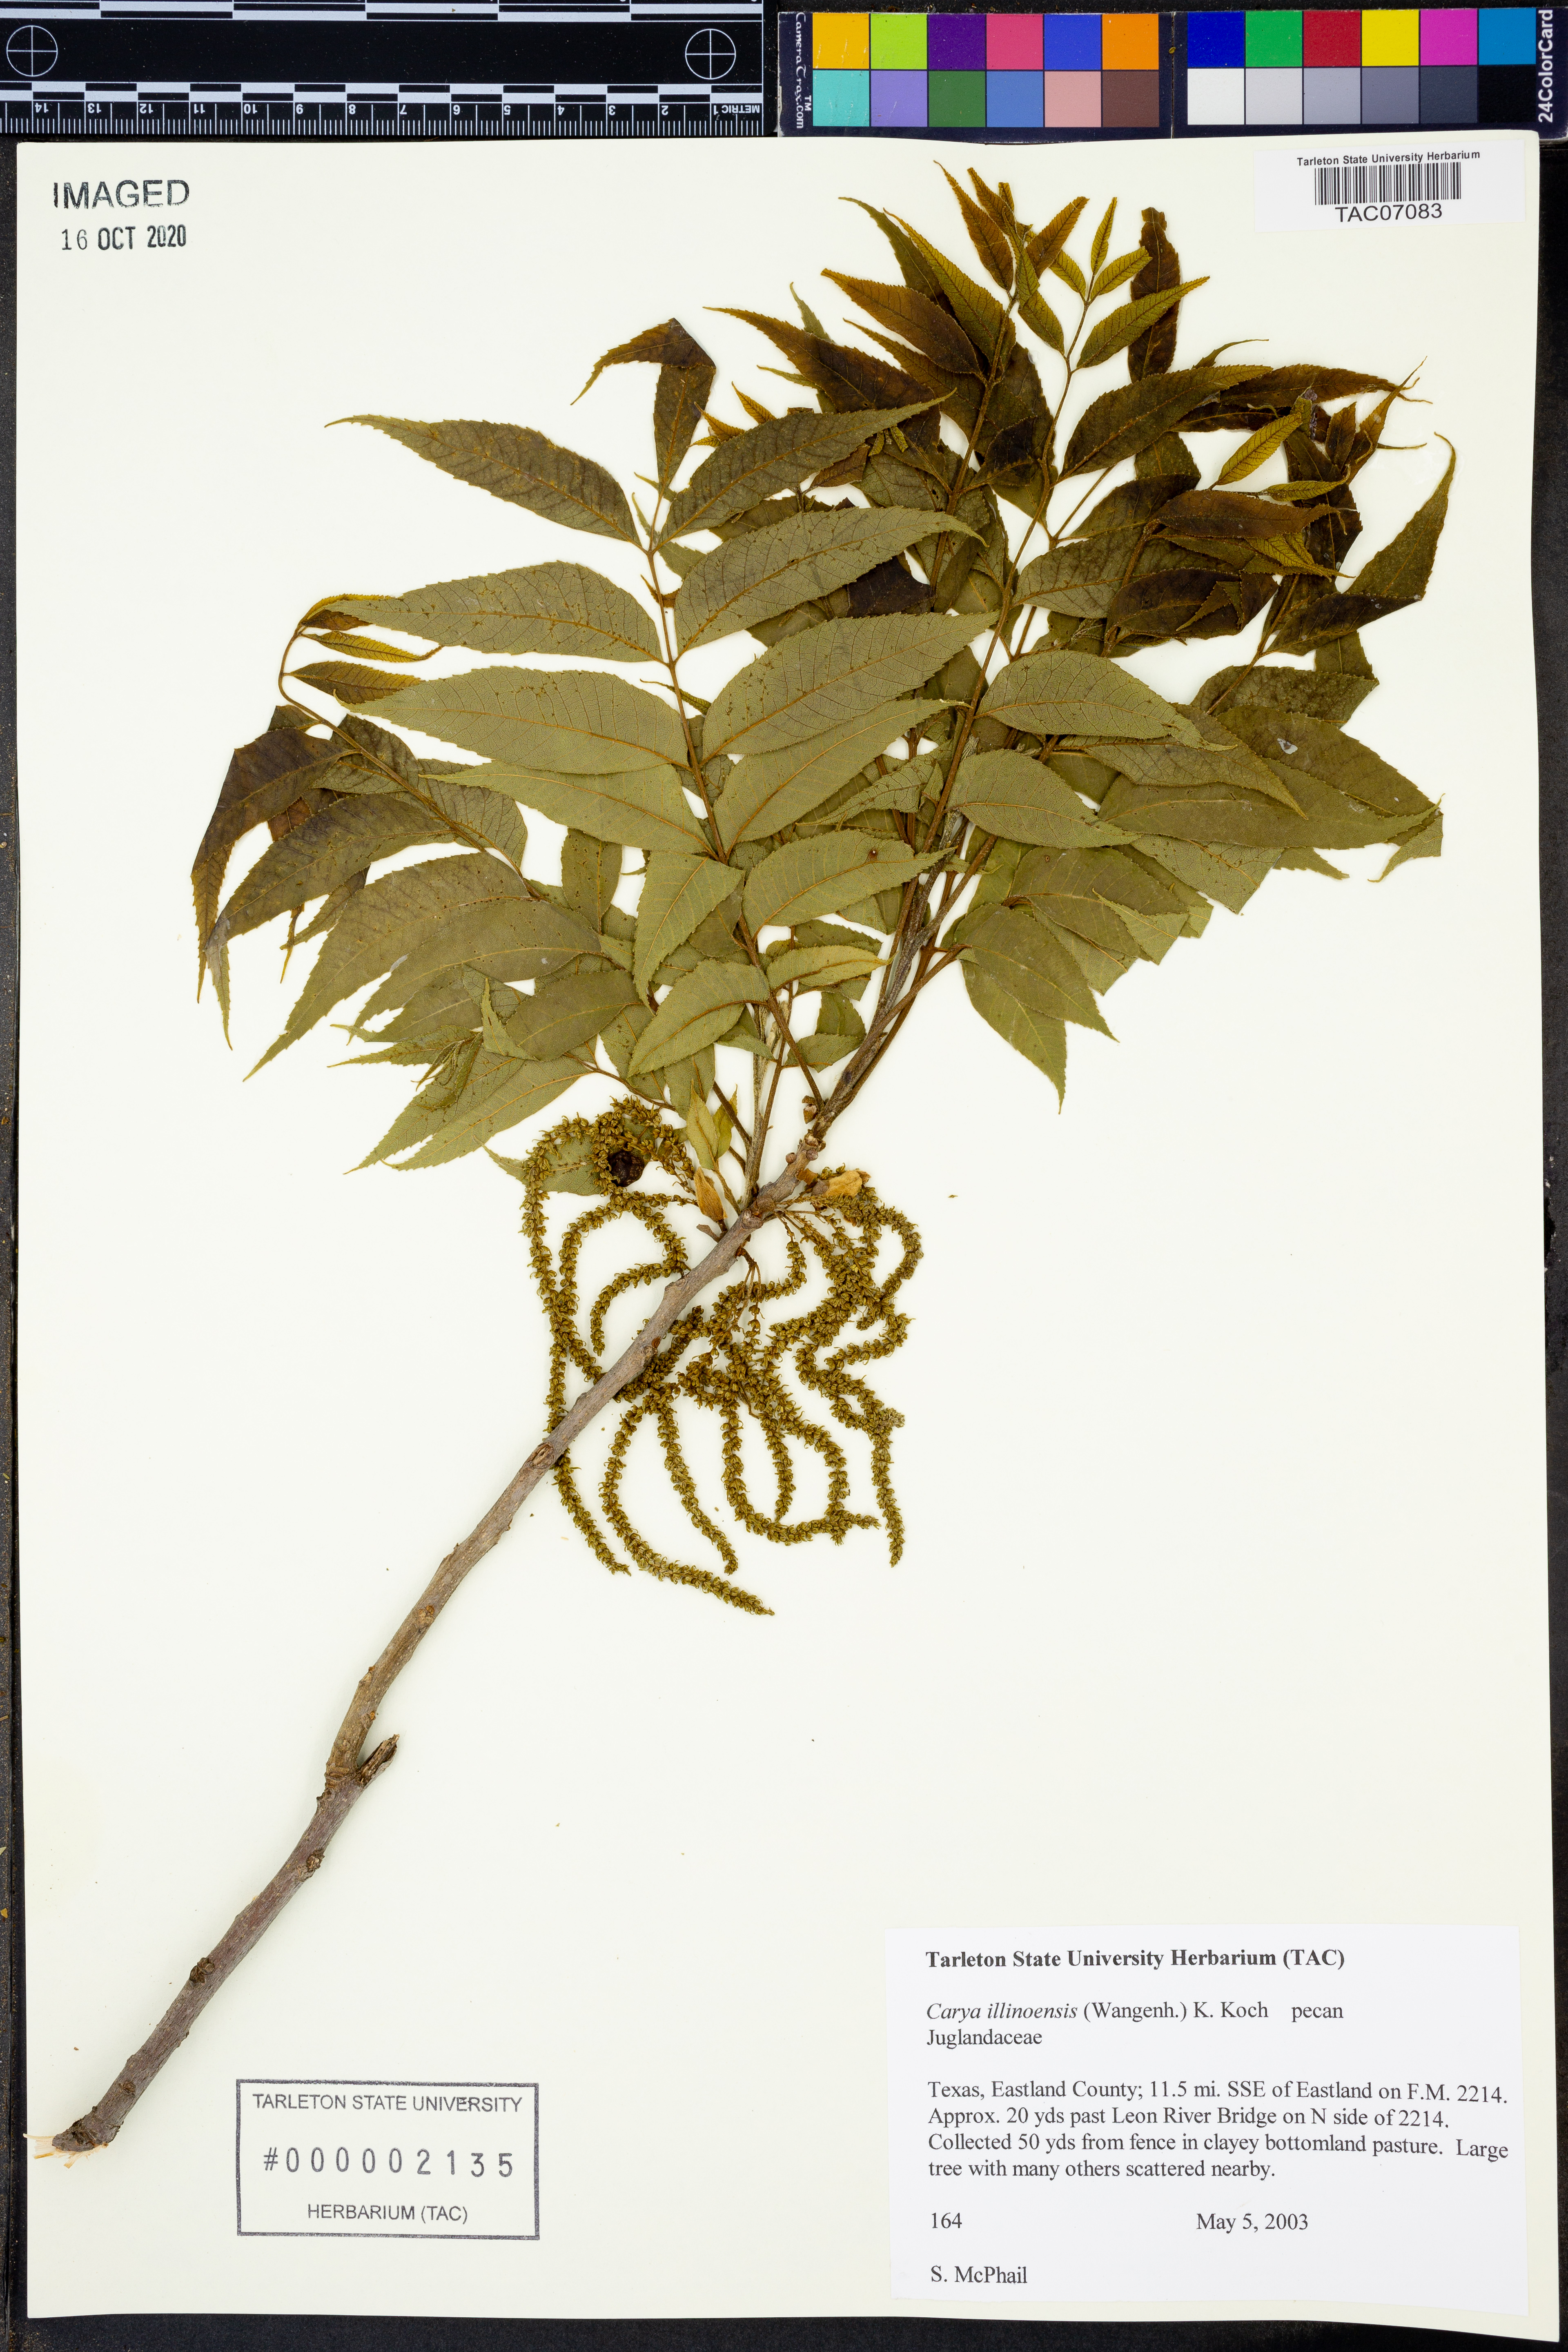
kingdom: Plantae
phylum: Tracheophyta
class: Magnoliopsida
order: Fagales
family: Juglandaceae
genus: Carya
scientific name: Carya illinoinensis
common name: Pecan
